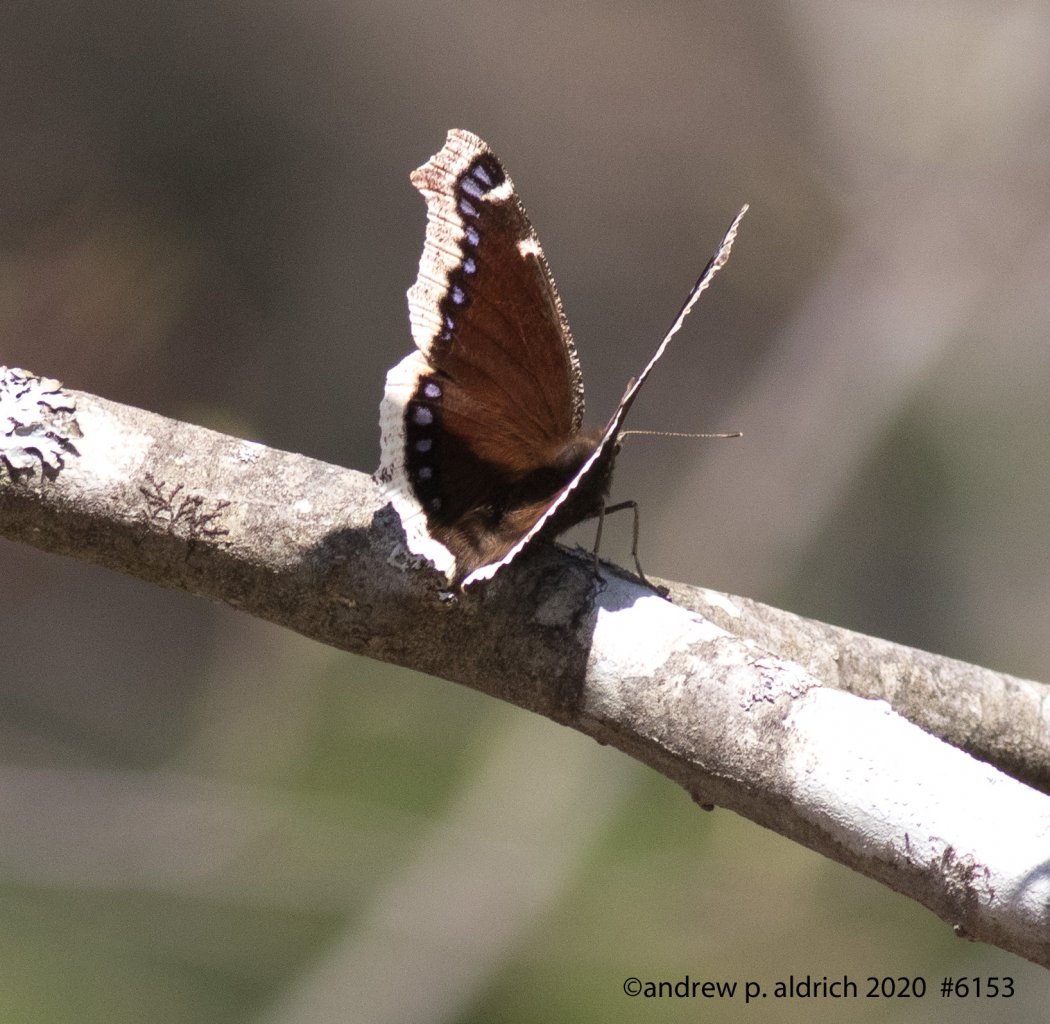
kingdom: Animalia
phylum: Arthropoda
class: Insecta
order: Lepidoptera
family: Nymphalidae
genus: Nymphalis
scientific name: Nymphalis antiopa
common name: Mourning Cloak
